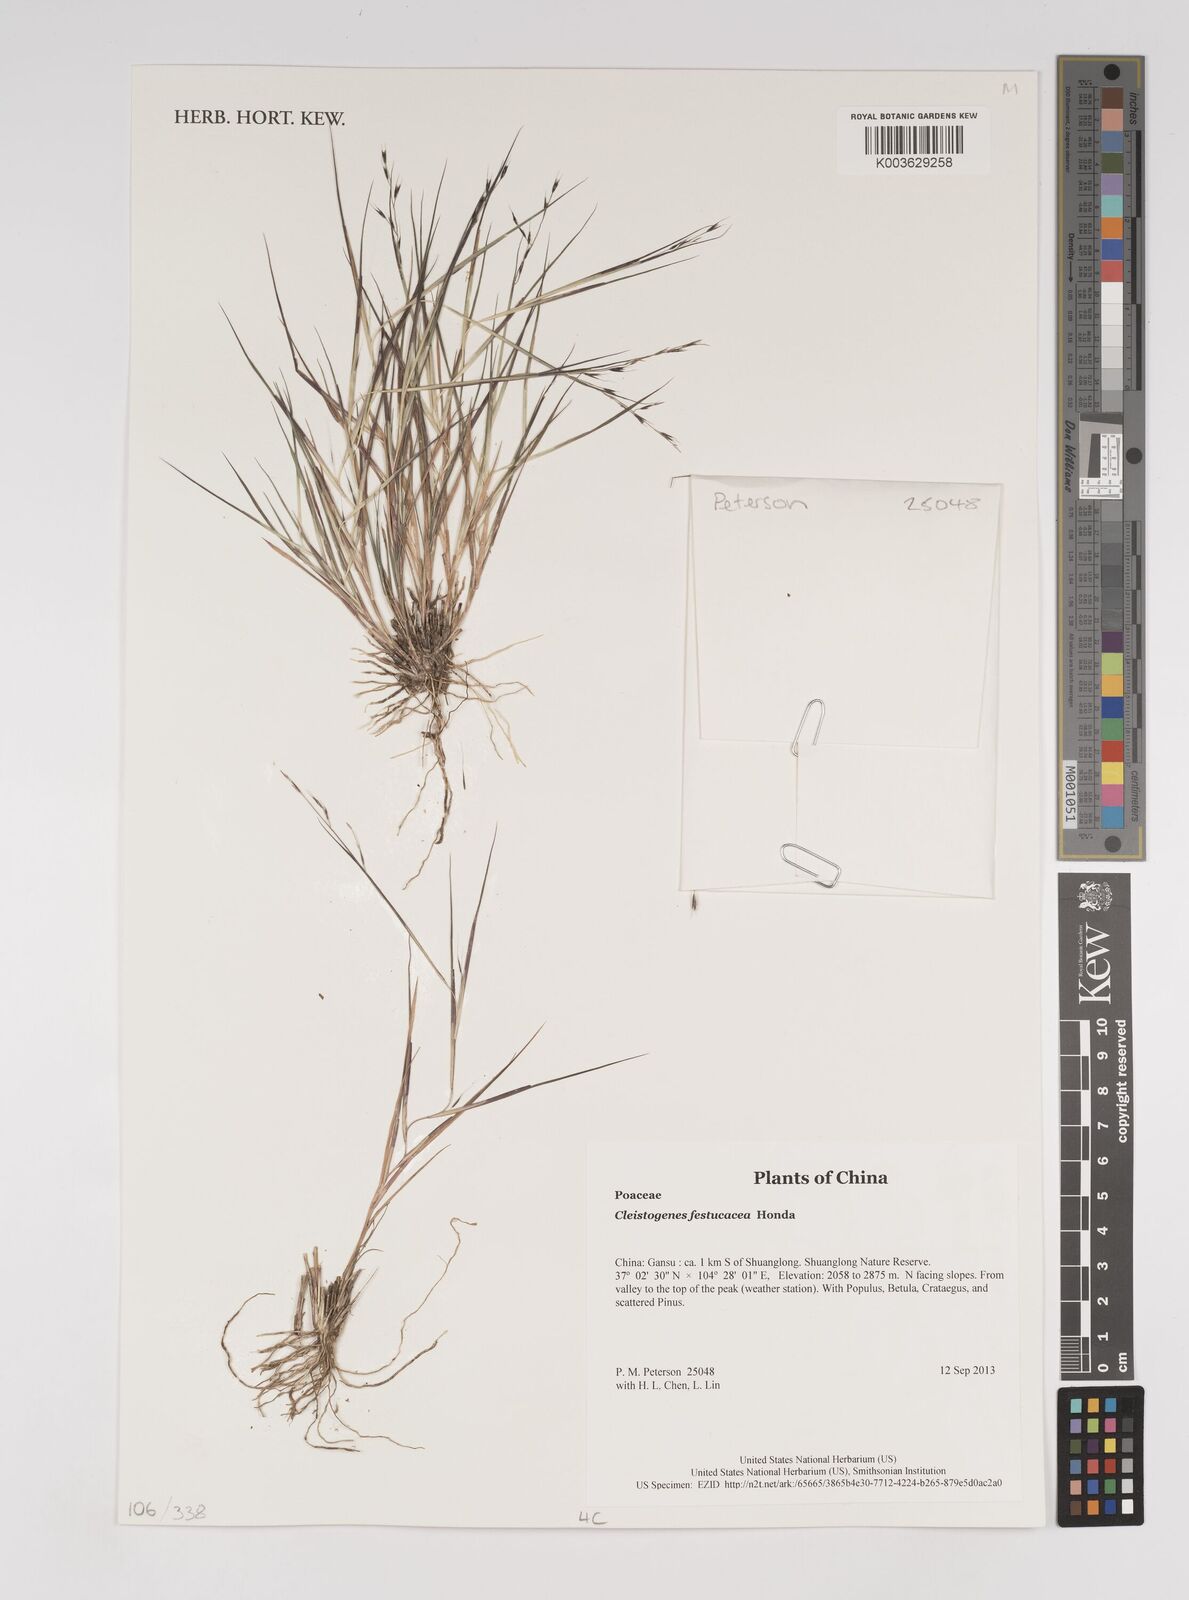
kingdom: Plantae
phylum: Tracheophyta
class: Liliopsida
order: Poales
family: Poaceae
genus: Cleistogenes
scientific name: Cleistogenes festucacea
